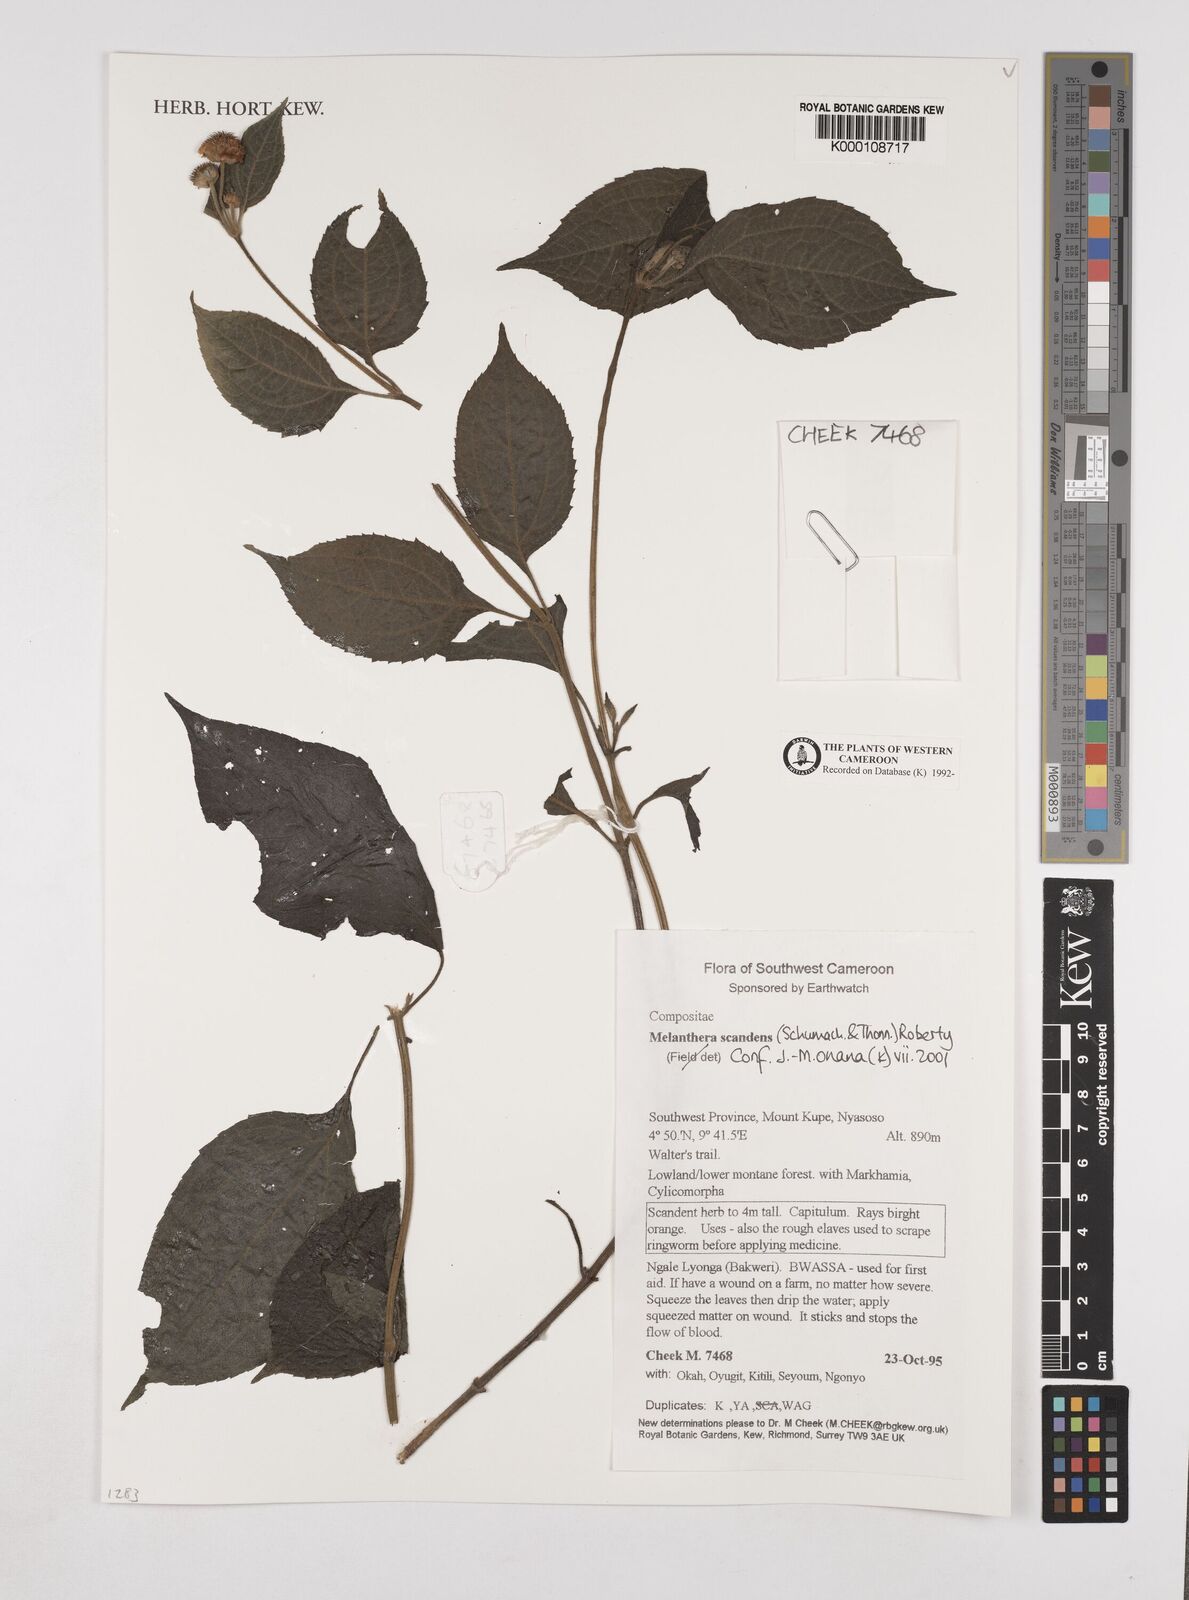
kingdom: Plantae
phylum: Tracheophyta
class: Magnoliopsida
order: Asterales
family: Asteraceae
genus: Melanthera
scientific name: Melanthera
